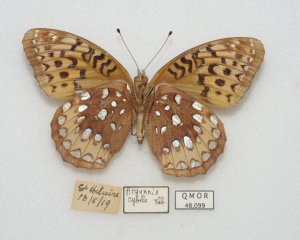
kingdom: Animalia
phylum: Arthropoda
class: Insecta
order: Lepidoptera
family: Nymphalidae
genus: Speyeria
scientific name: Speyeria cybele
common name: Great Spangled Fritillary
